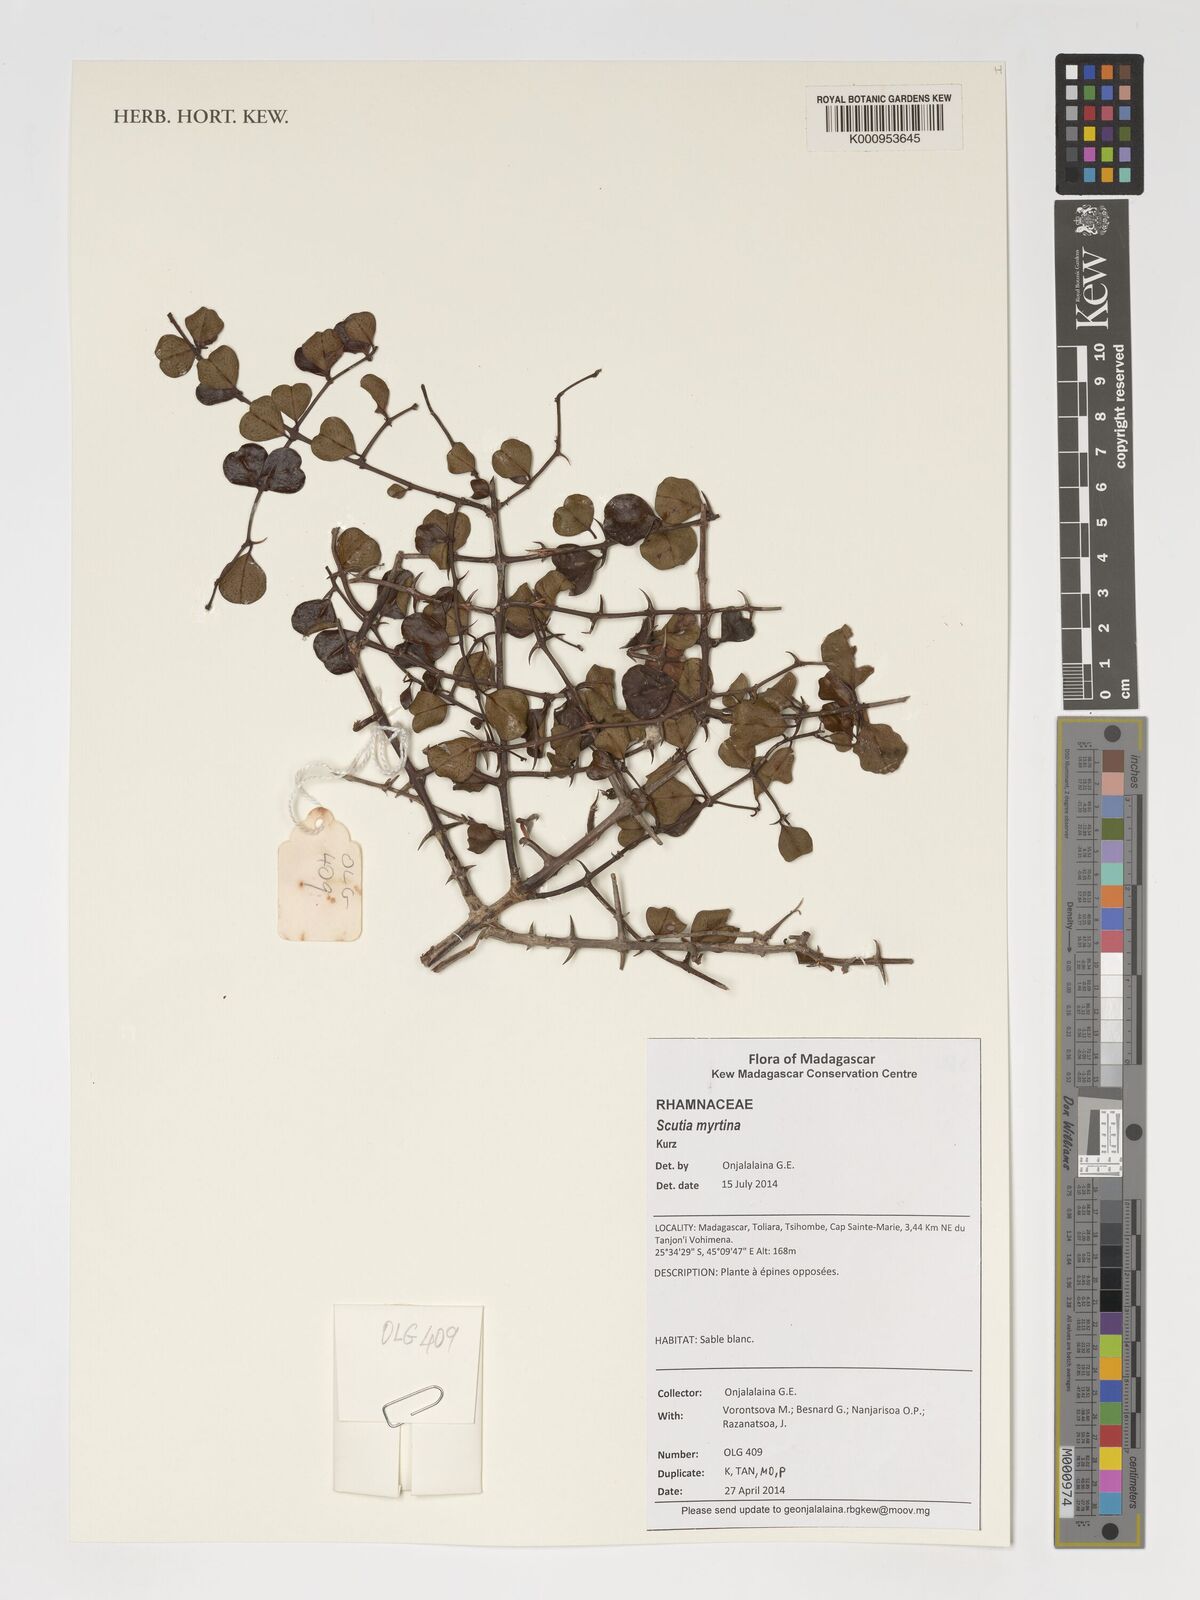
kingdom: Plantae
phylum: Tracheophyta
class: Magnoliopsida
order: Rosales
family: Rhamnaceae
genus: Scutia
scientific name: Scutia myrtina
